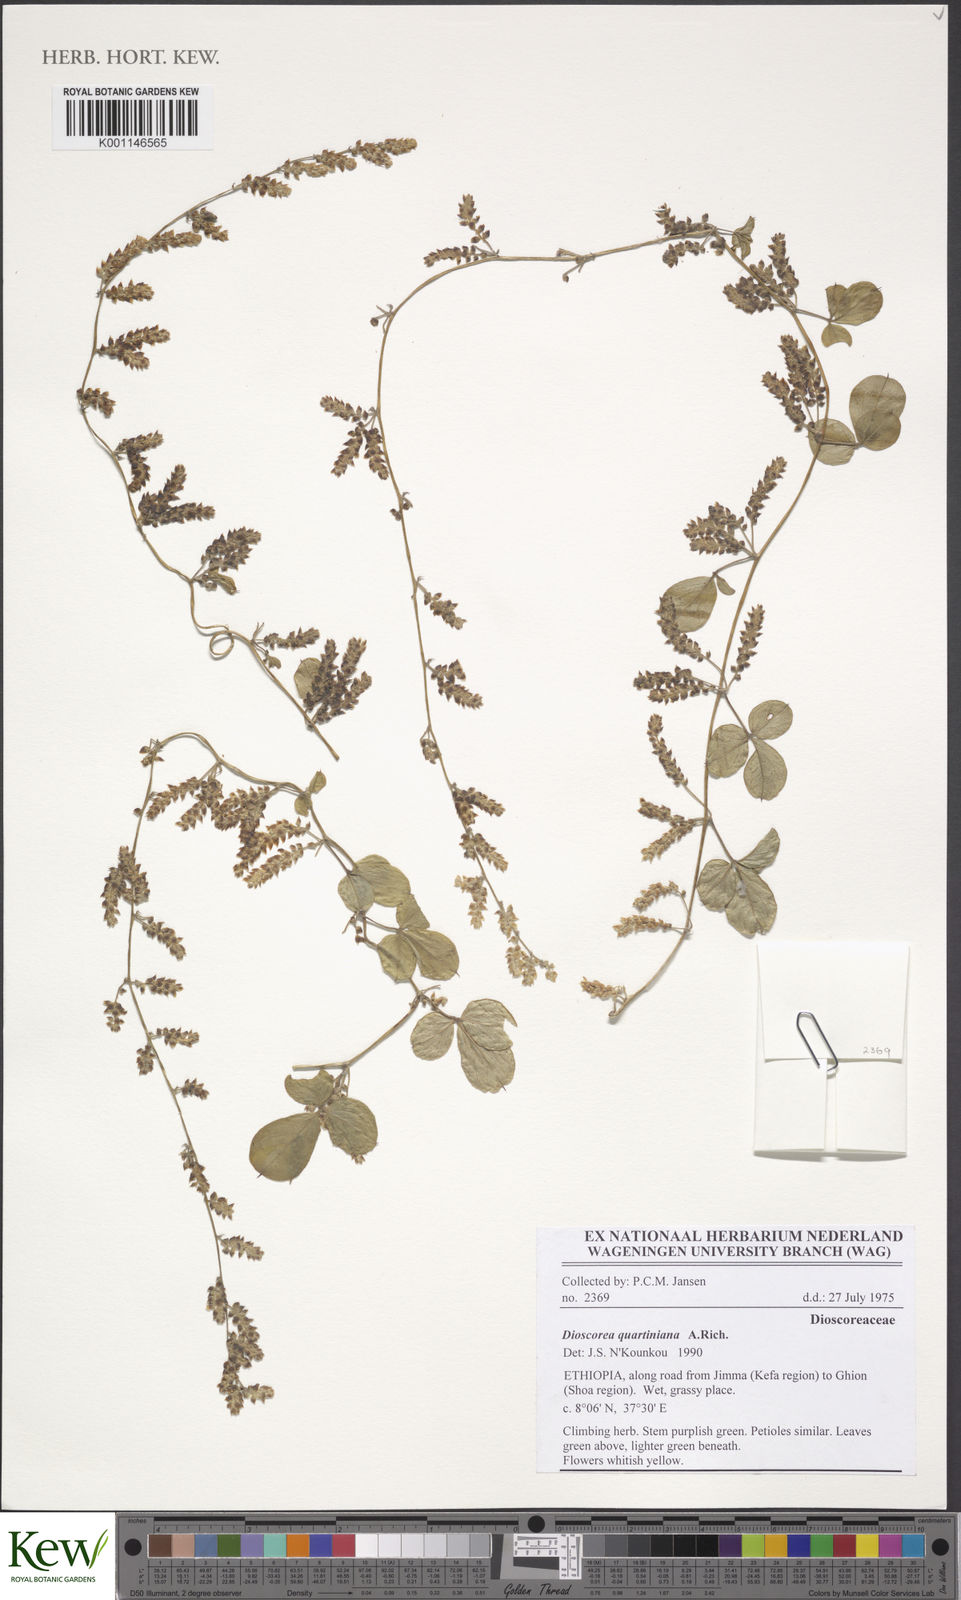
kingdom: Plantae
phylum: Tracheophyta
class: Liliopsida
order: Dioscoreales
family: Dioscoreaceae
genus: Dioscorea
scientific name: Dioscorea quartiniana
